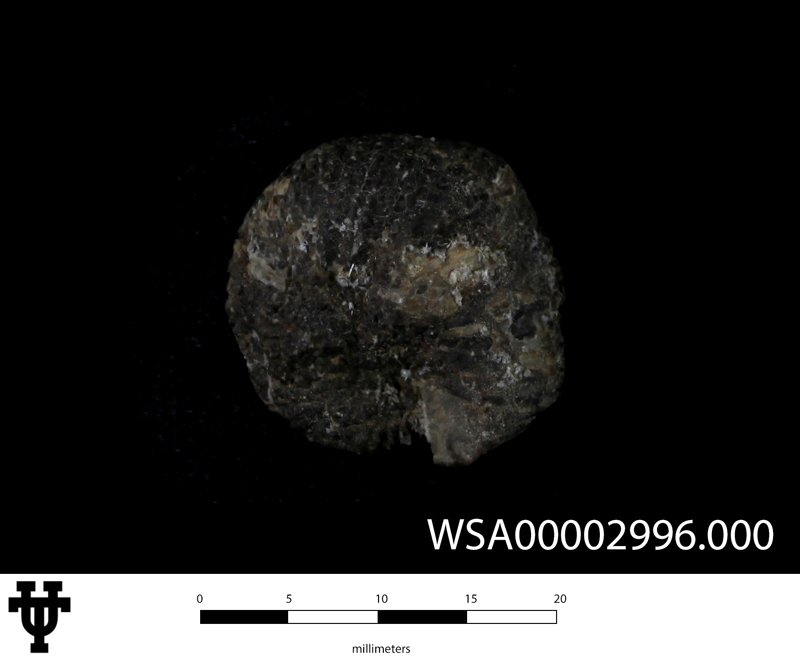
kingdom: Animalia
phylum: Mollusca
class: Cephalopoda
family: Scaphitidae
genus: Scaphites
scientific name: Scaphites bosquensis
